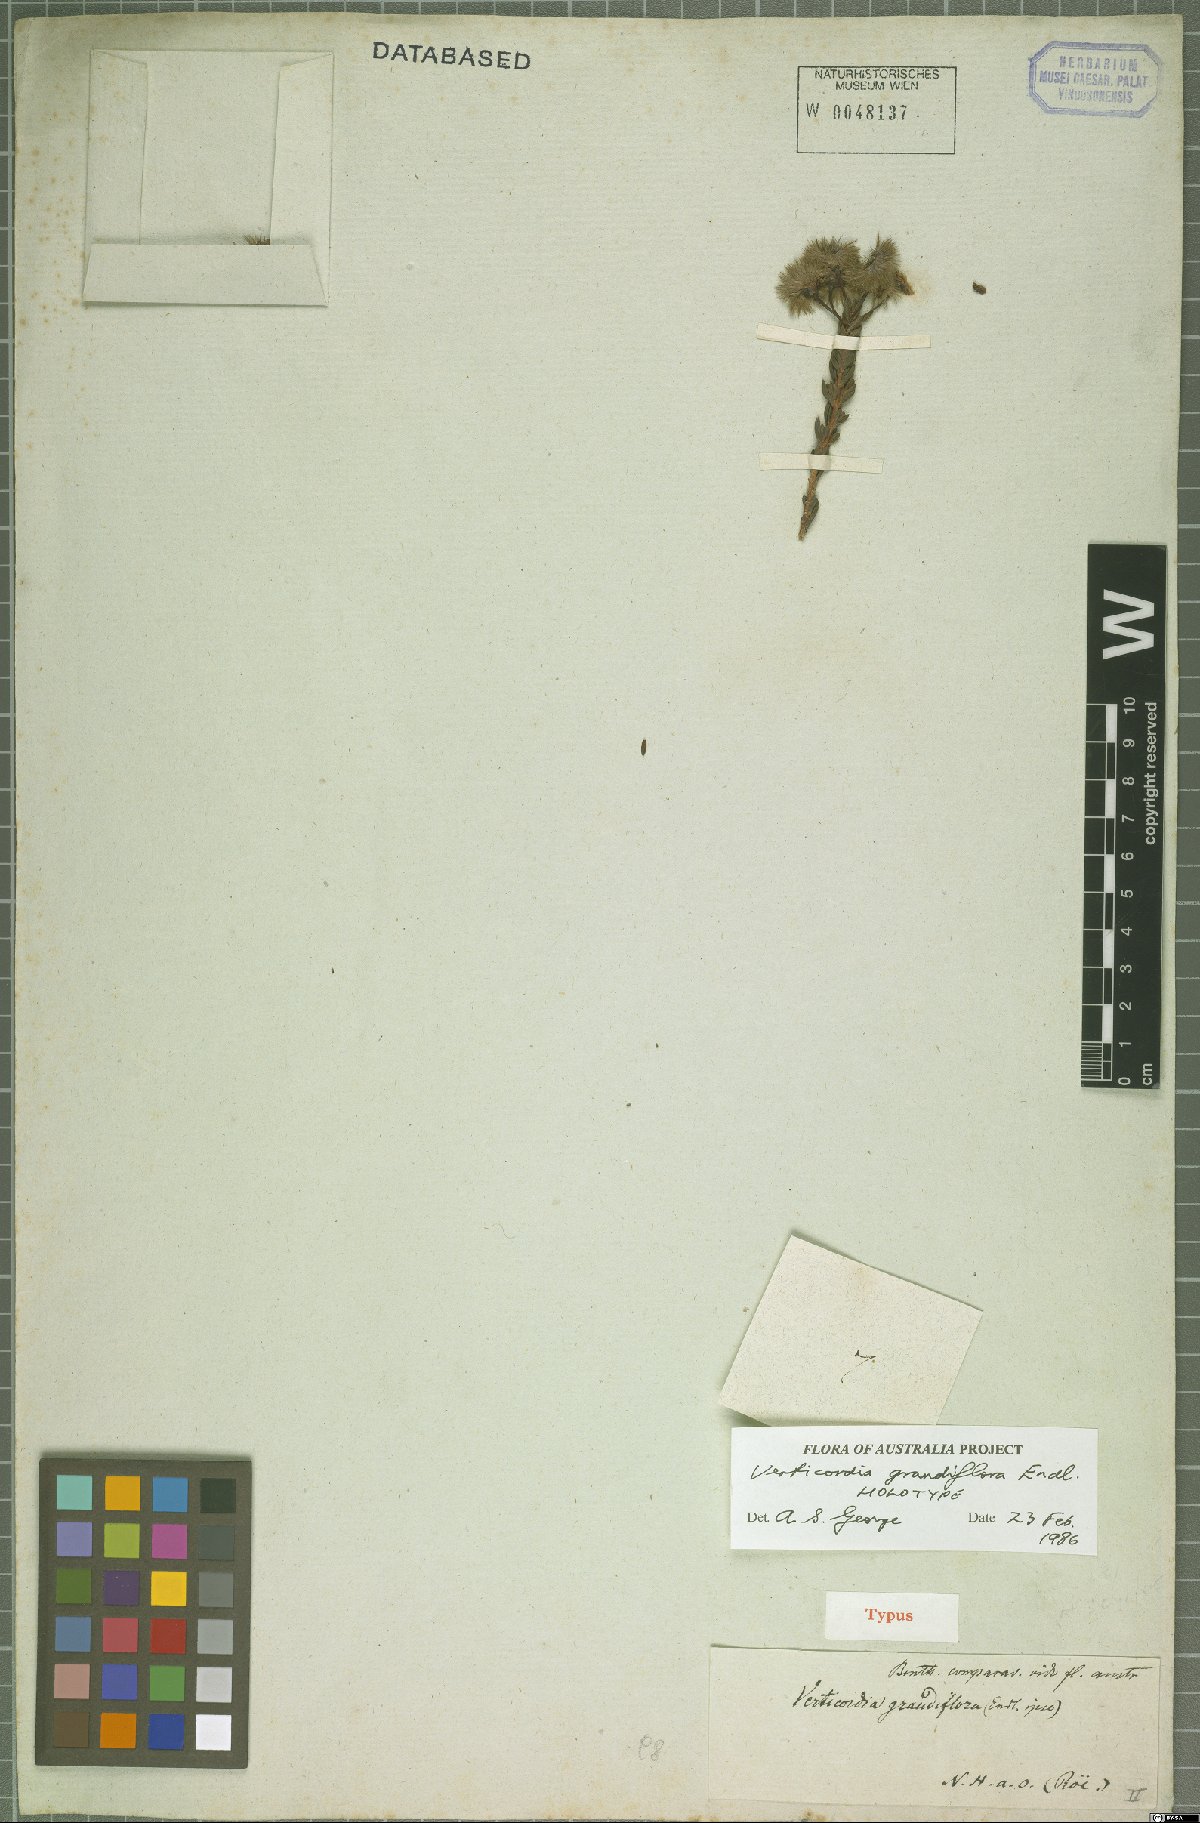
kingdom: Plantae
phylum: Tracheophyta
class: Magnoliopsida
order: Myrtales
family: Myrtaceae
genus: Verticordia
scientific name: Verticordia grandiflora
